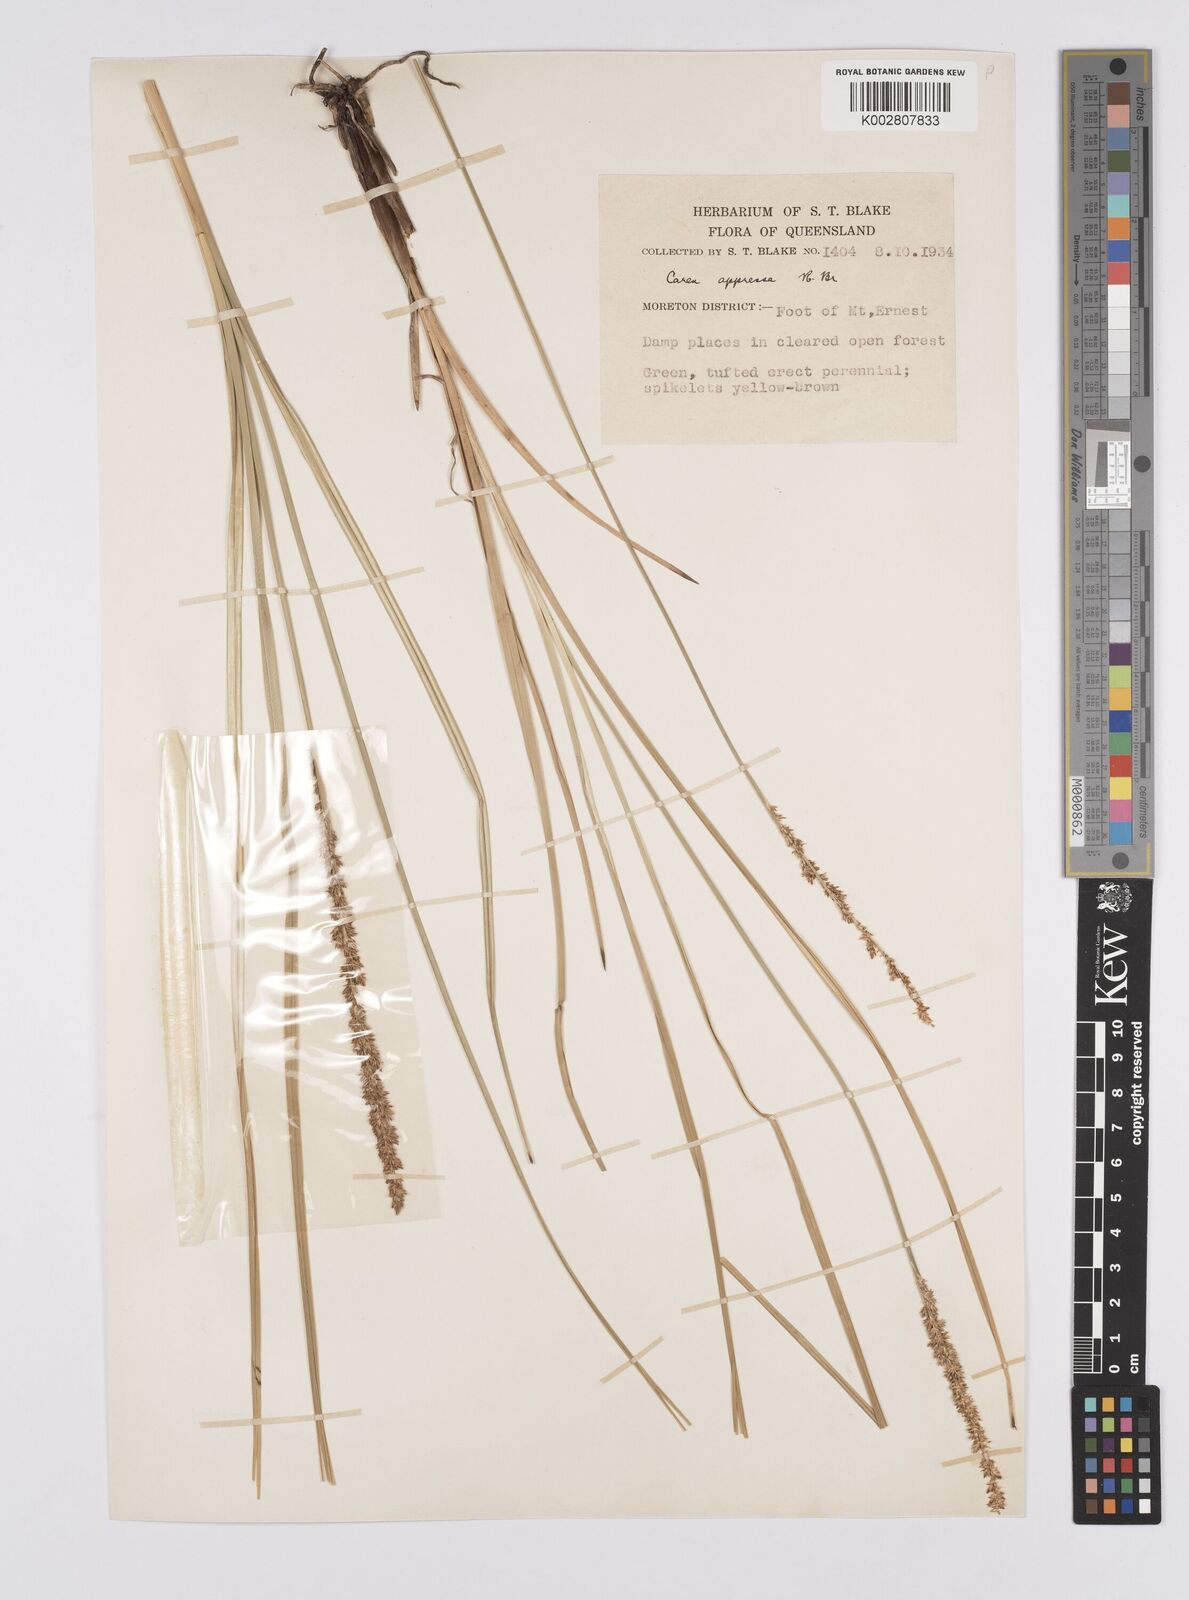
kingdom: Plantae
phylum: Tracheophyta
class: Liliopsida
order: Poales
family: Cyperaceae
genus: Carex
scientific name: Carex appressa
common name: Tussock sedge
